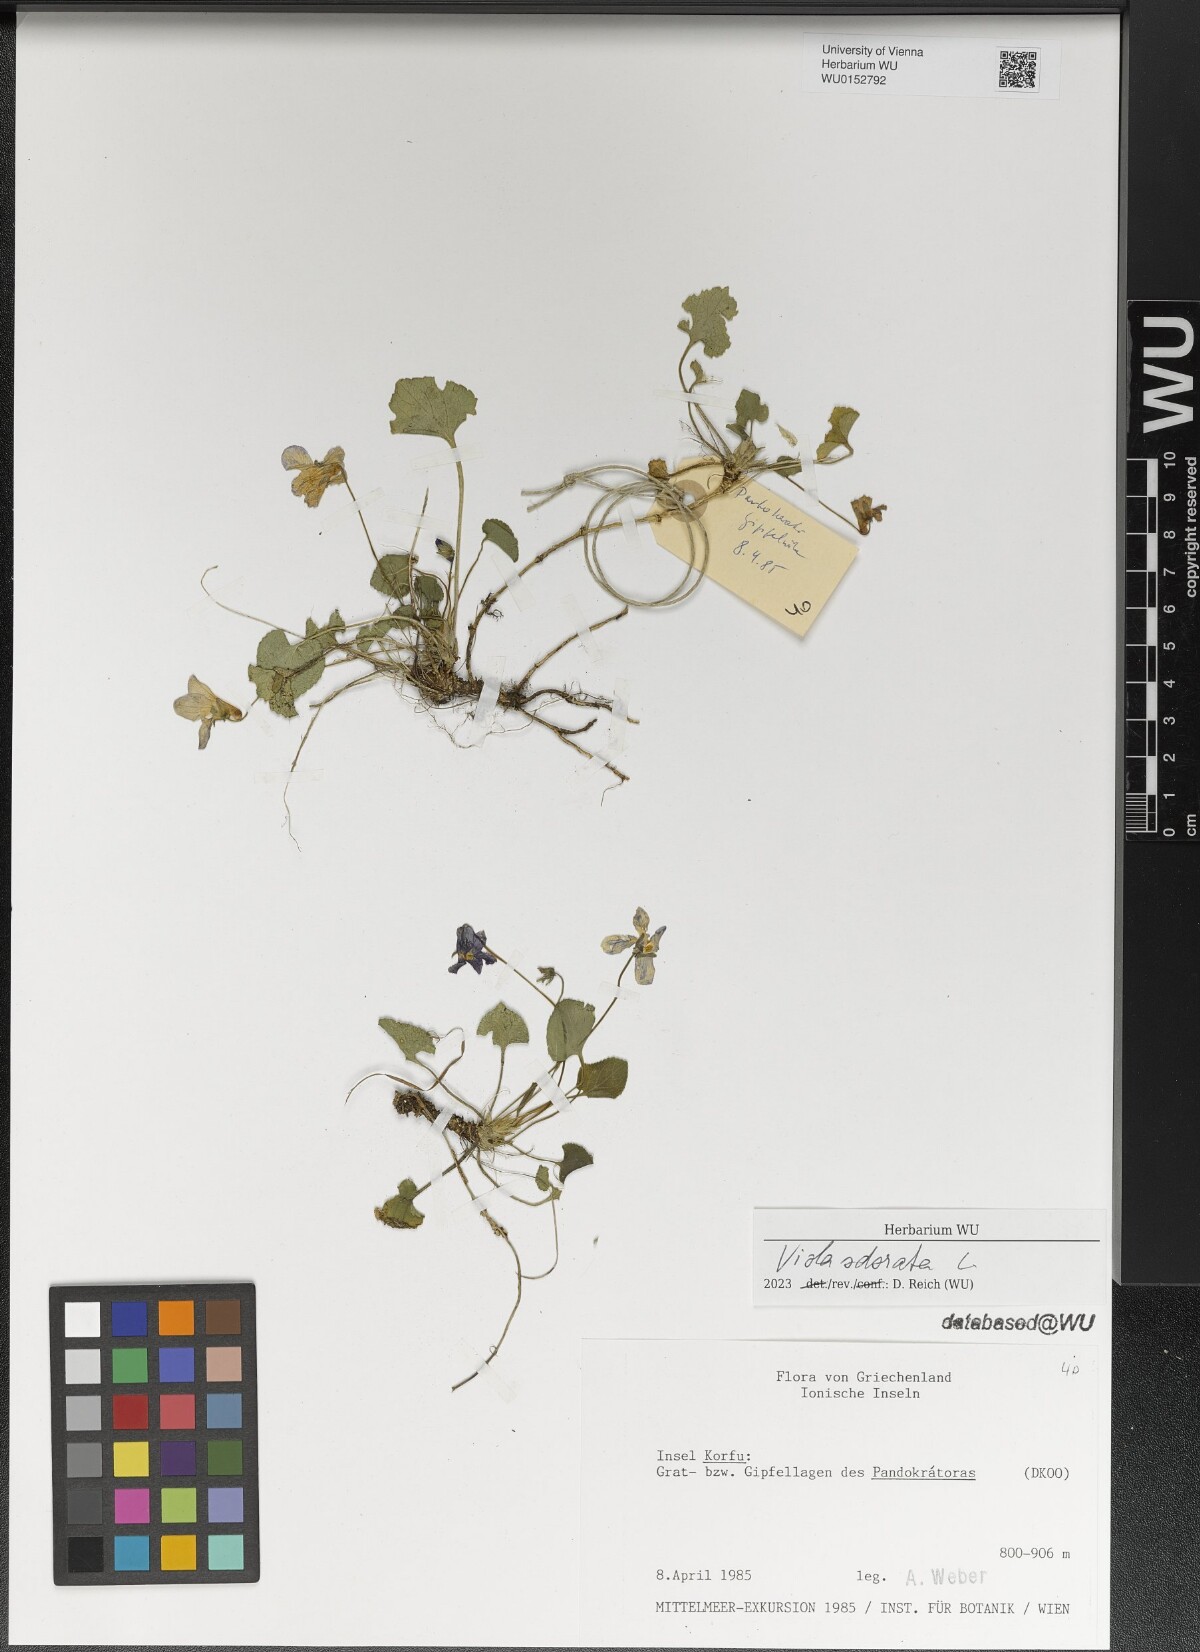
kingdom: Plantae
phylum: Tracheophyta
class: Magnoliopsida
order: Malpighiales
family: Violaceae
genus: Viola
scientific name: Viola odorata
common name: Sweet violet
